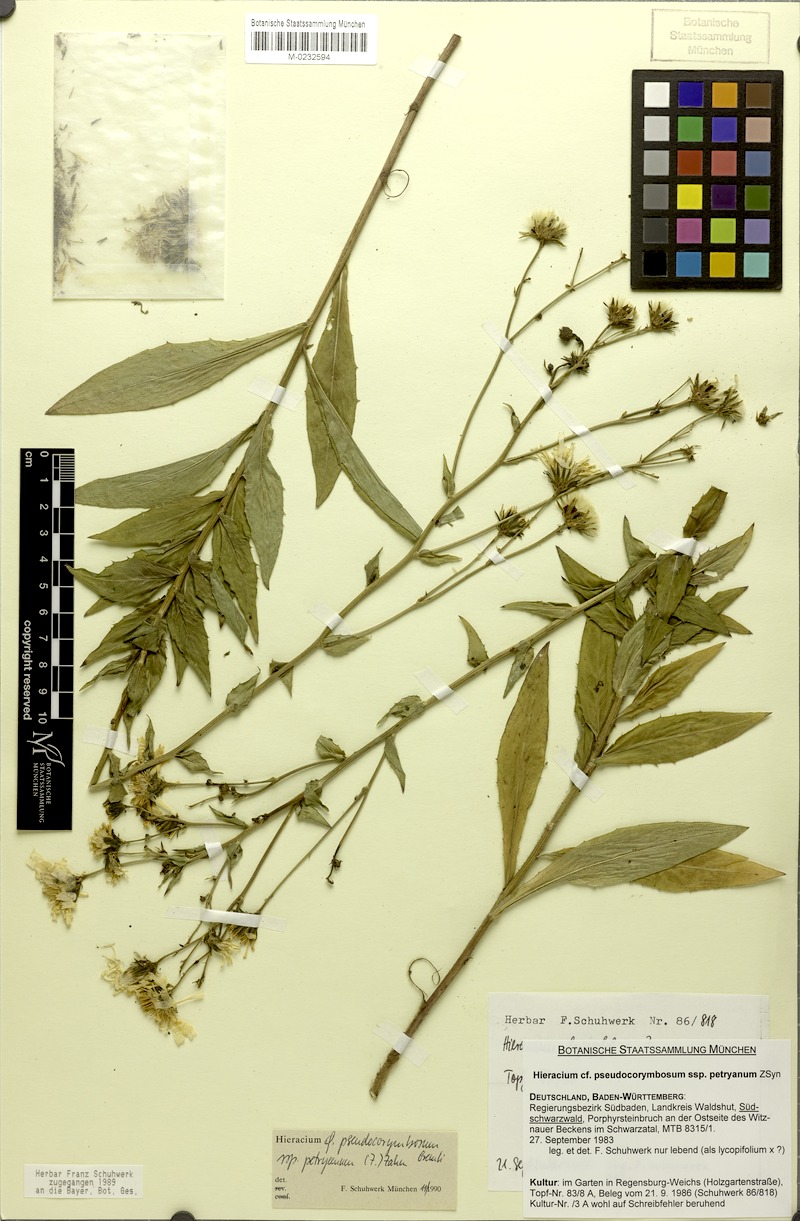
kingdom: Plantae
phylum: Tracheophyta
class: Magnoliopsida
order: Asterales
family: Asteraceae
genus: Hieracium
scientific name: Hieracium pseudocorymbosum
